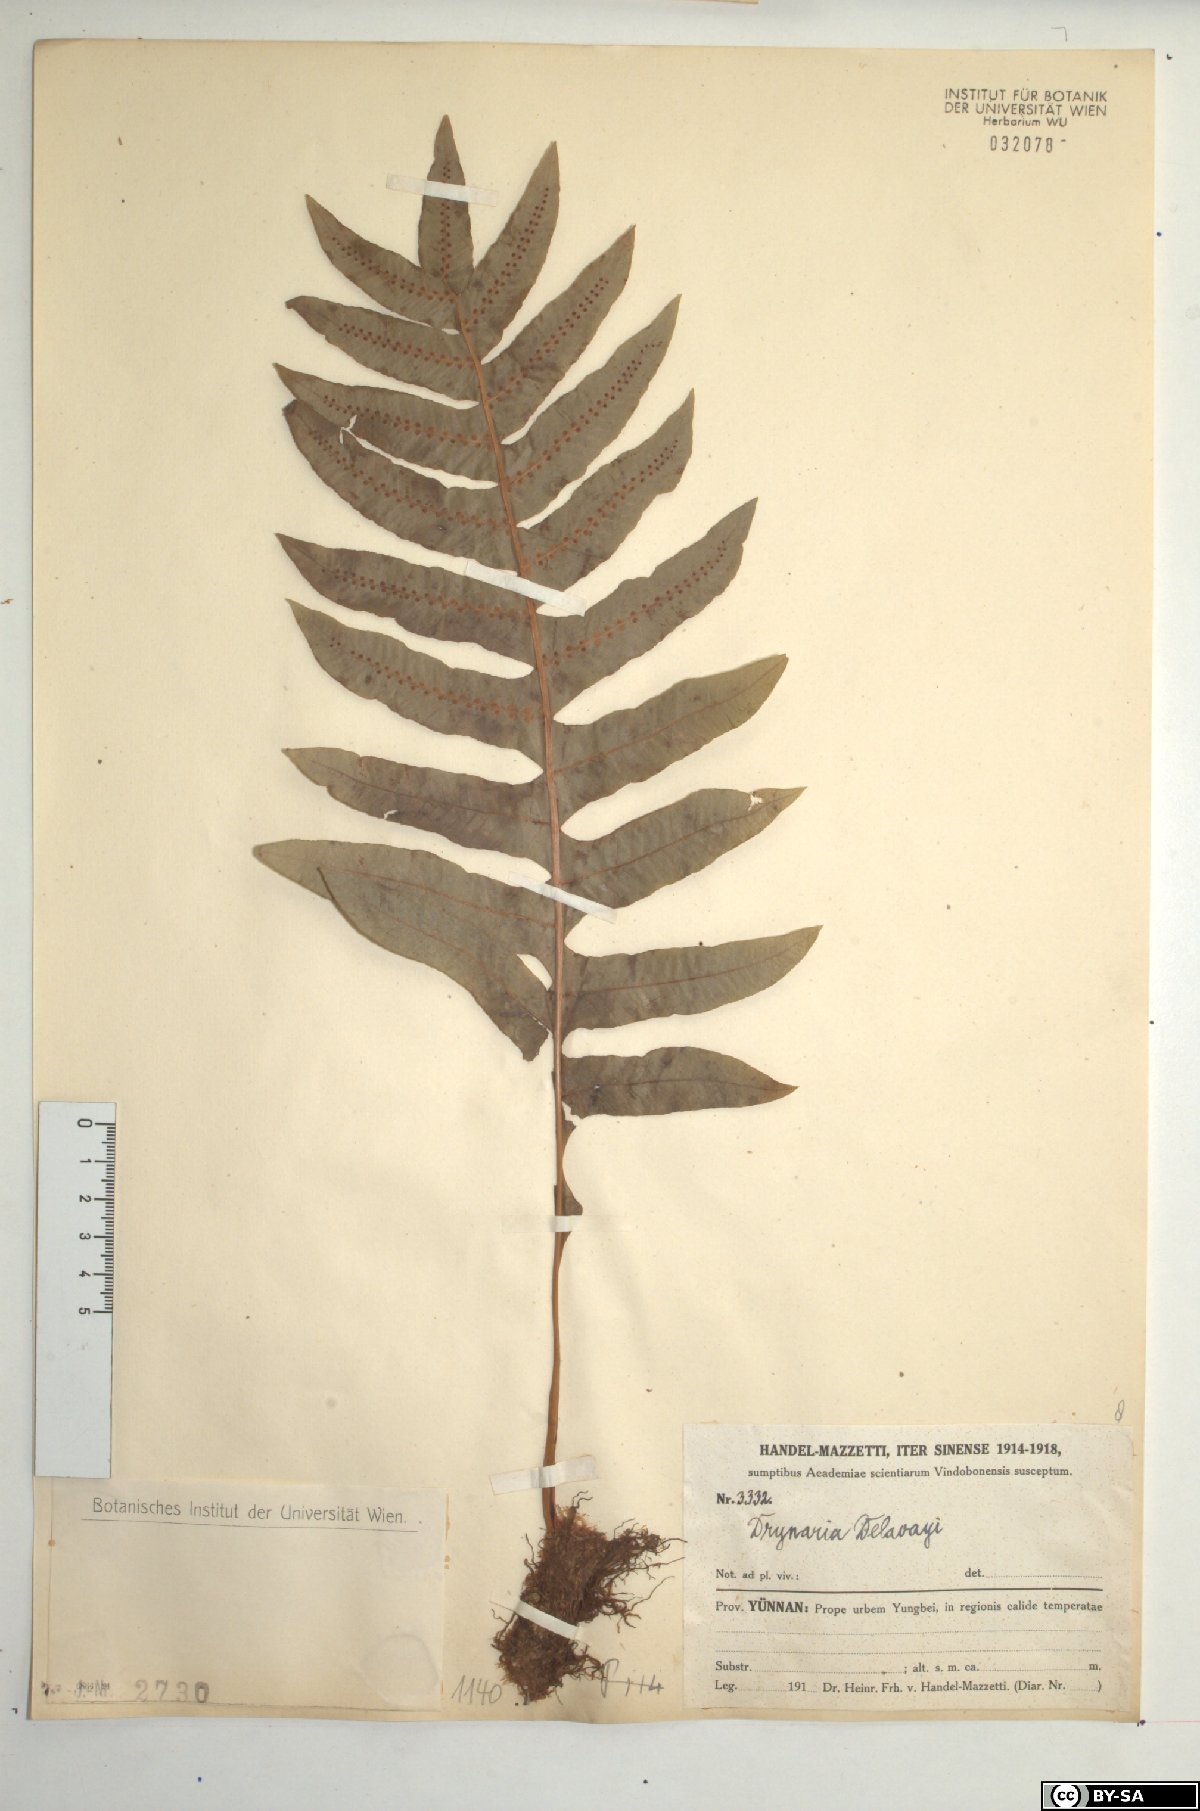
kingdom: Plantae
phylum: Tracheophyta
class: Polypodiopsida
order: Polypodiales
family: Polypodiaceae
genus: Drynaria
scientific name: Drynaria delavayi
